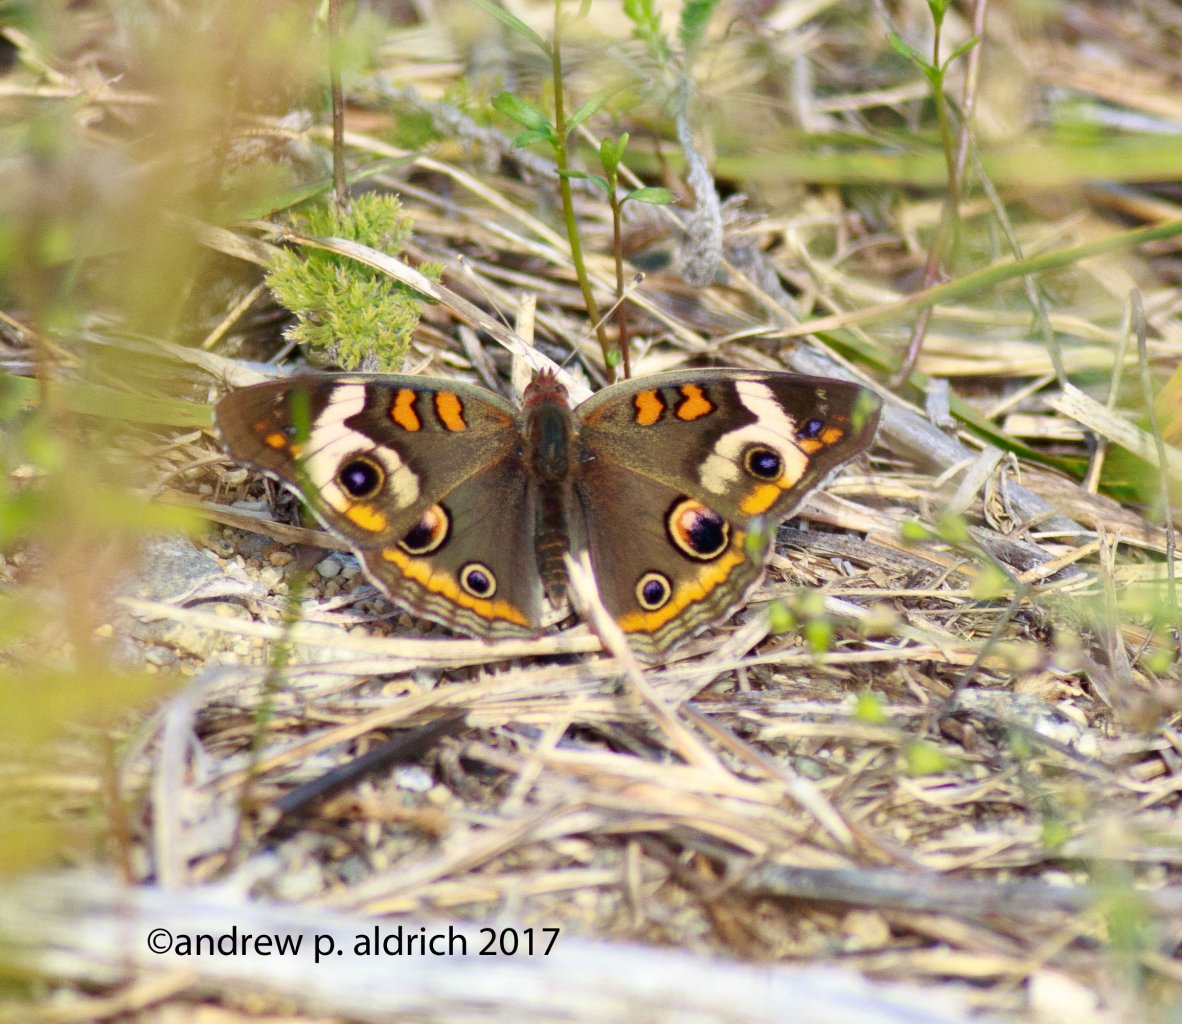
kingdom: Animalia
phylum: Arthropoda
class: Insecta
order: Lepidoptera
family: Nymphalidae
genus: Junonia
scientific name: Junonia coenia
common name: Common Buckeye
